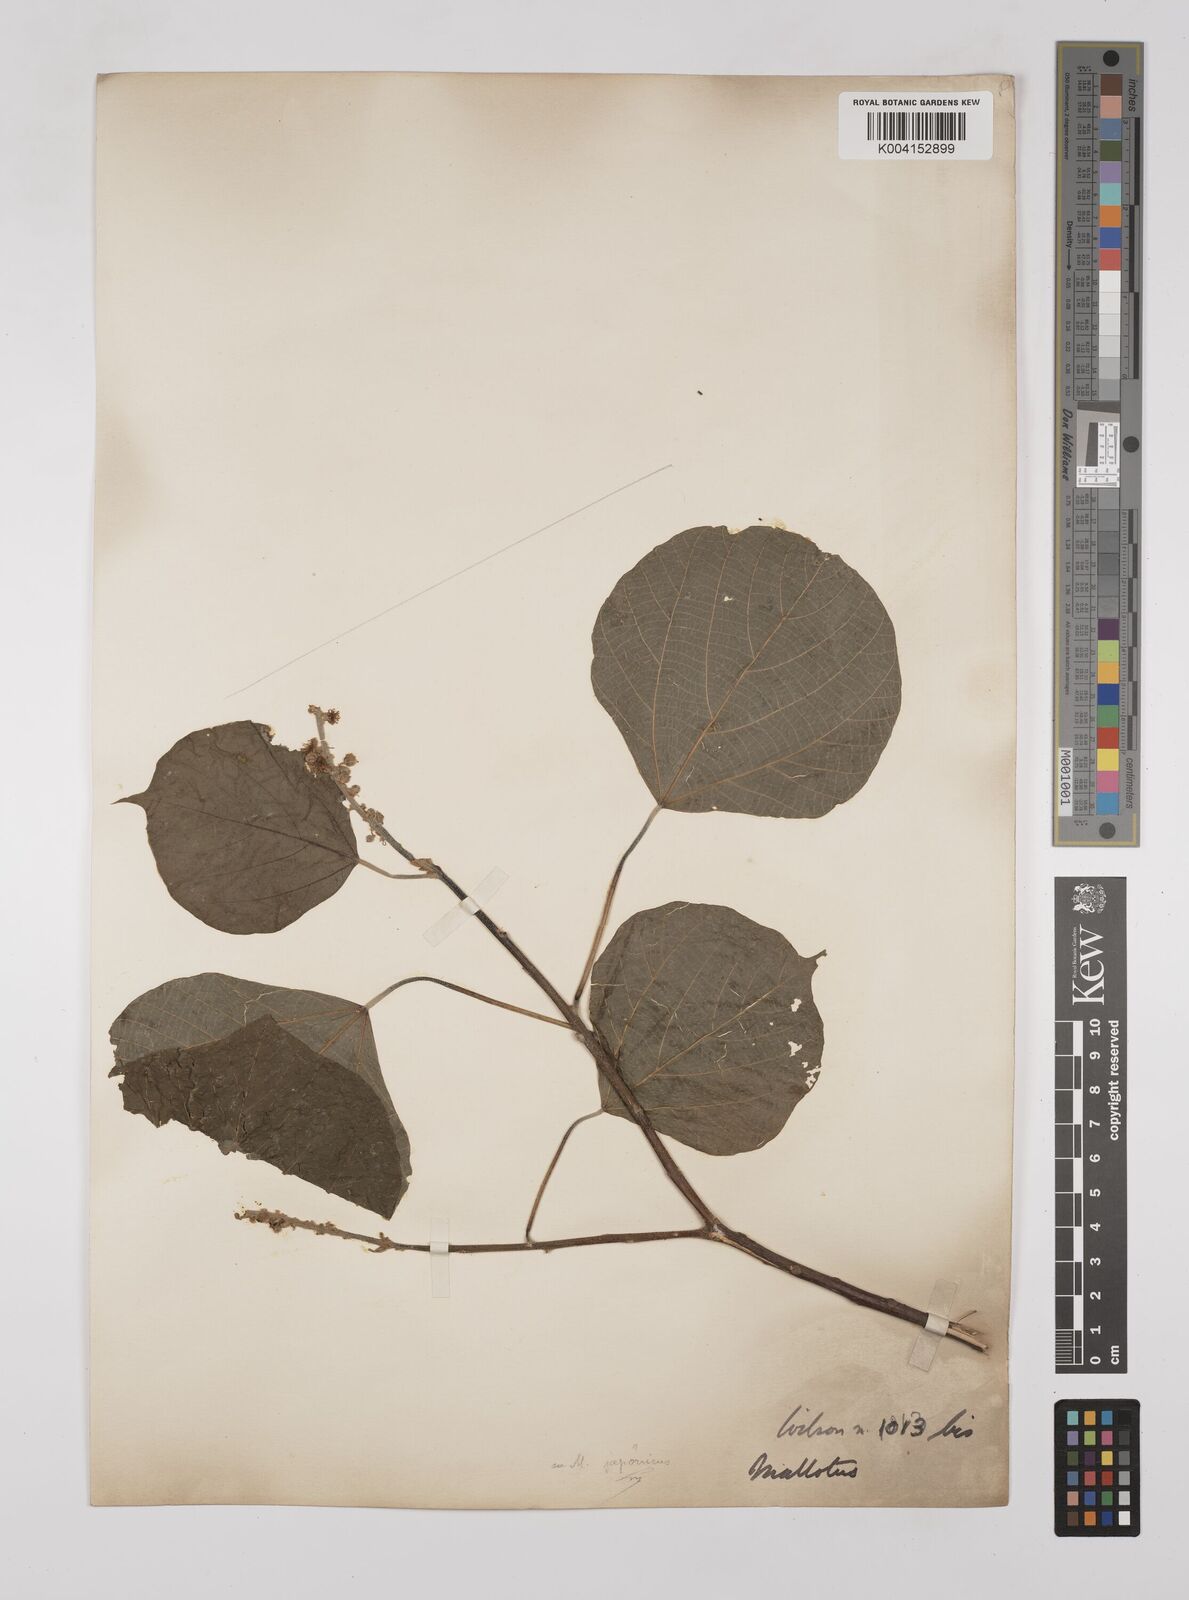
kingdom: Plantae
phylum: Tracheophyta
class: Magnoliopsida
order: Malpighiales
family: Euphorbiaceae
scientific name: Euphorbiaceae
